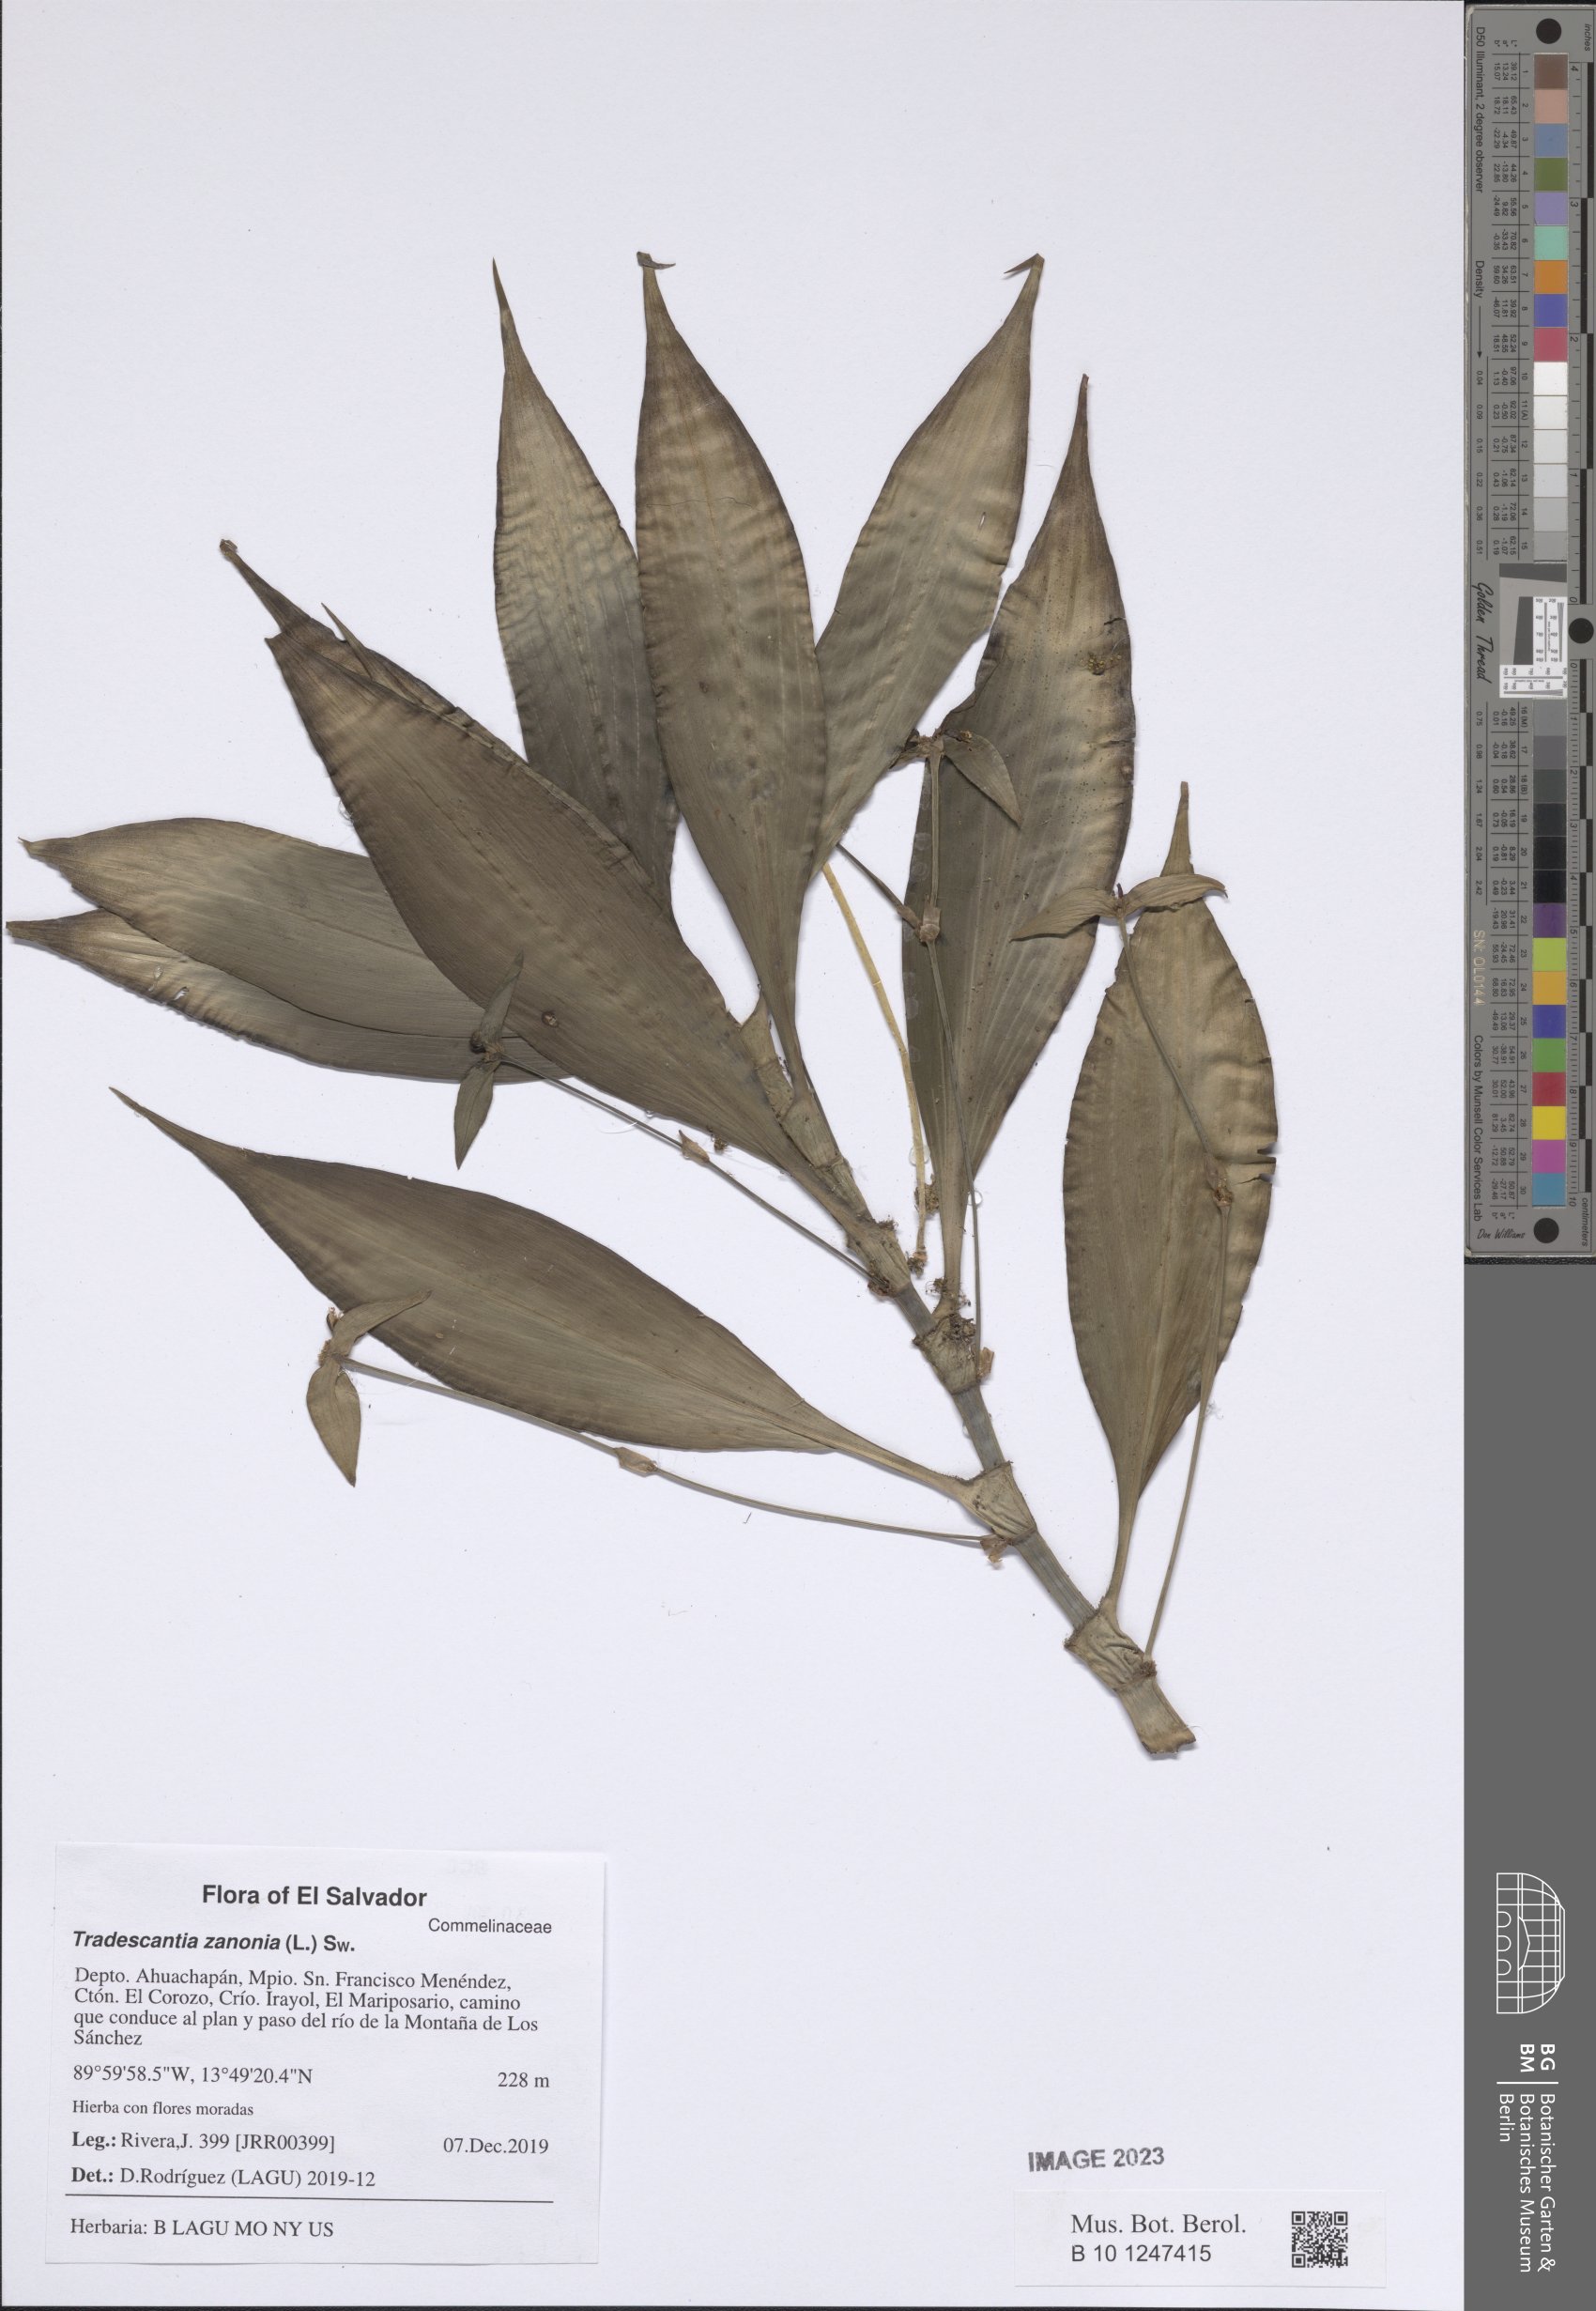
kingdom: Plantae
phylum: Tracheophyta
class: Liliopsida
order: Commelinales
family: Commelinaceae
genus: Tradescantia
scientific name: Tradescantia zanonia
